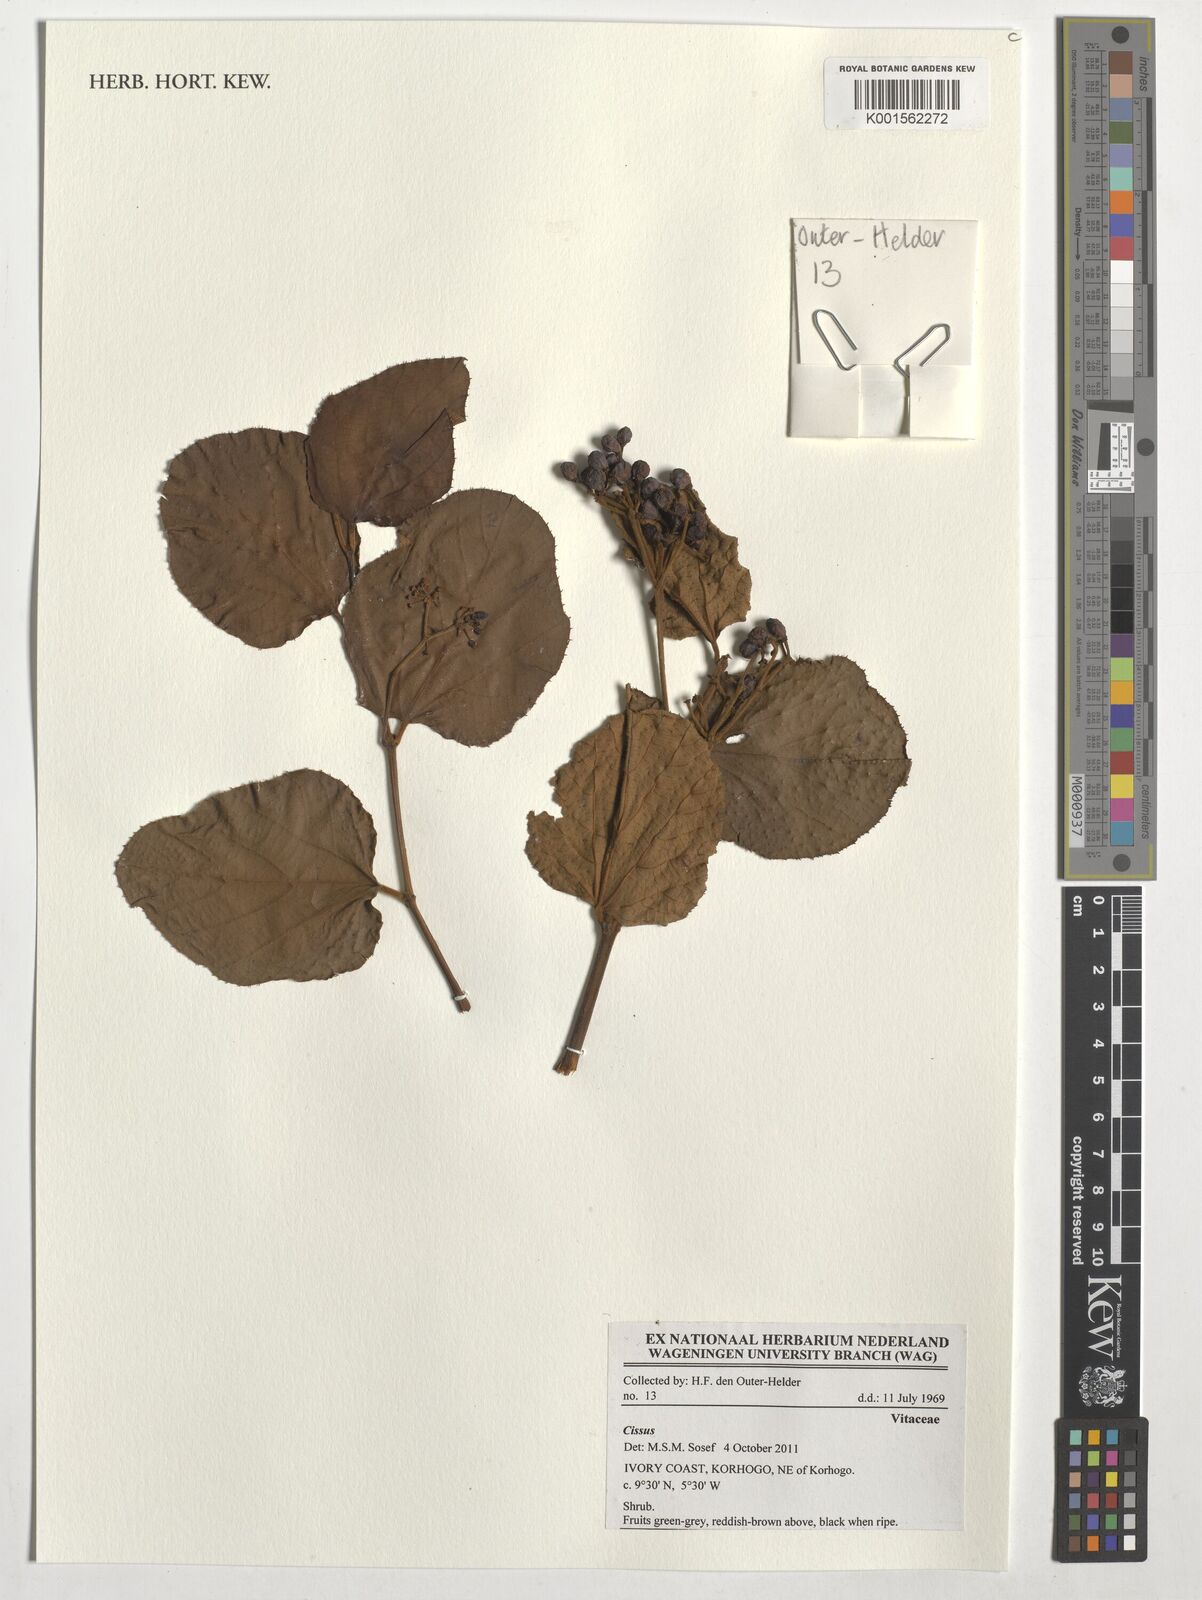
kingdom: Plantae
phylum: Tracheophyta
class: Magnoliopsida
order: Vitales
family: Vitaceae
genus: Cissus
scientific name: Cissus
